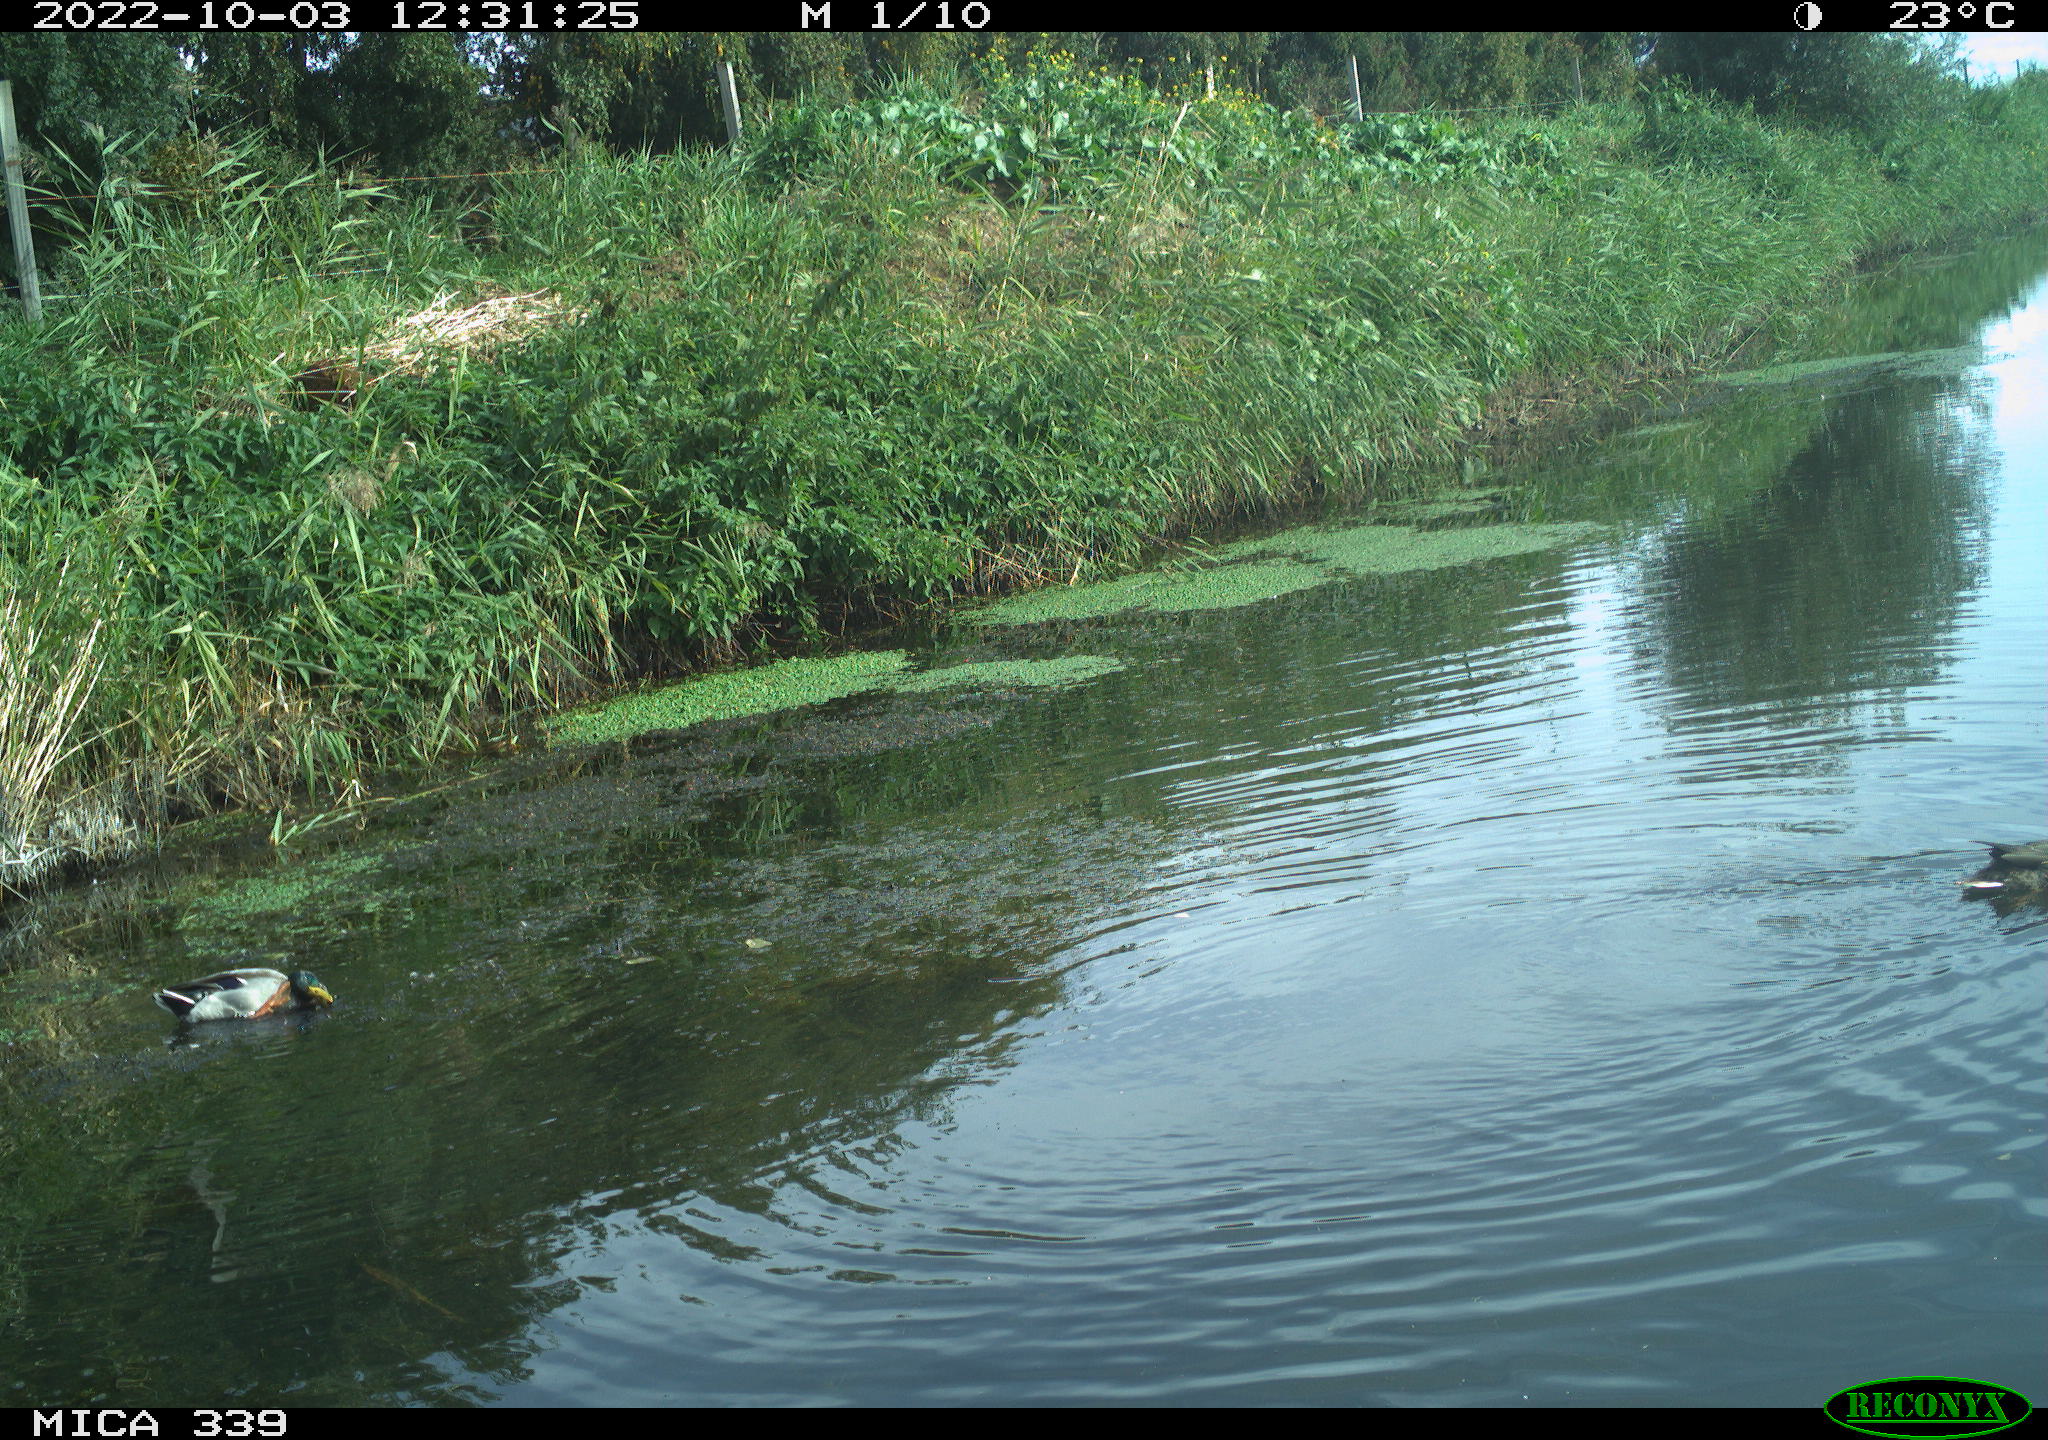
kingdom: Animalia
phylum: Chordata
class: Aves
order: Anseriformes
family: Anatidae
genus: Anas
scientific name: Anas platyrhynchos
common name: Mallard
